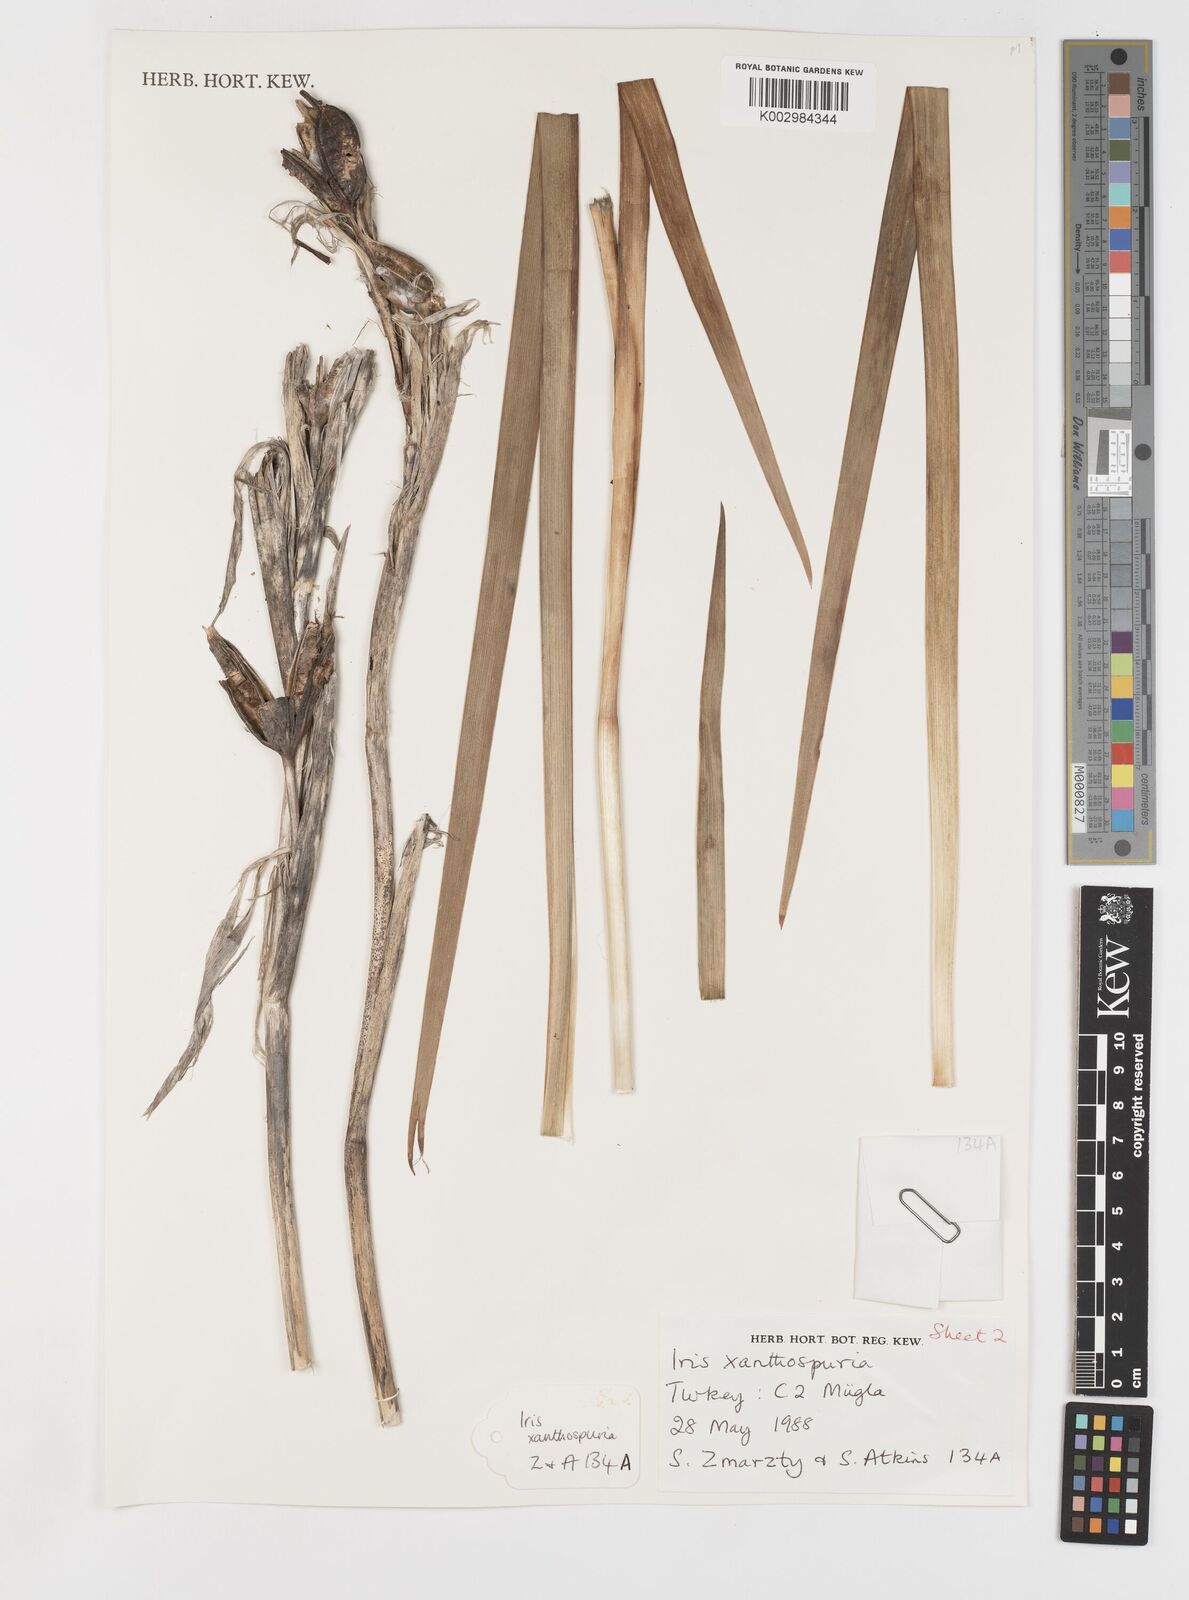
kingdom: Plantae
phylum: Tracheophyta
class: Liliopsida
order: Asparagales
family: Iridaceae
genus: Iris
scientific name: Iris spuria
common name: Blue iris
